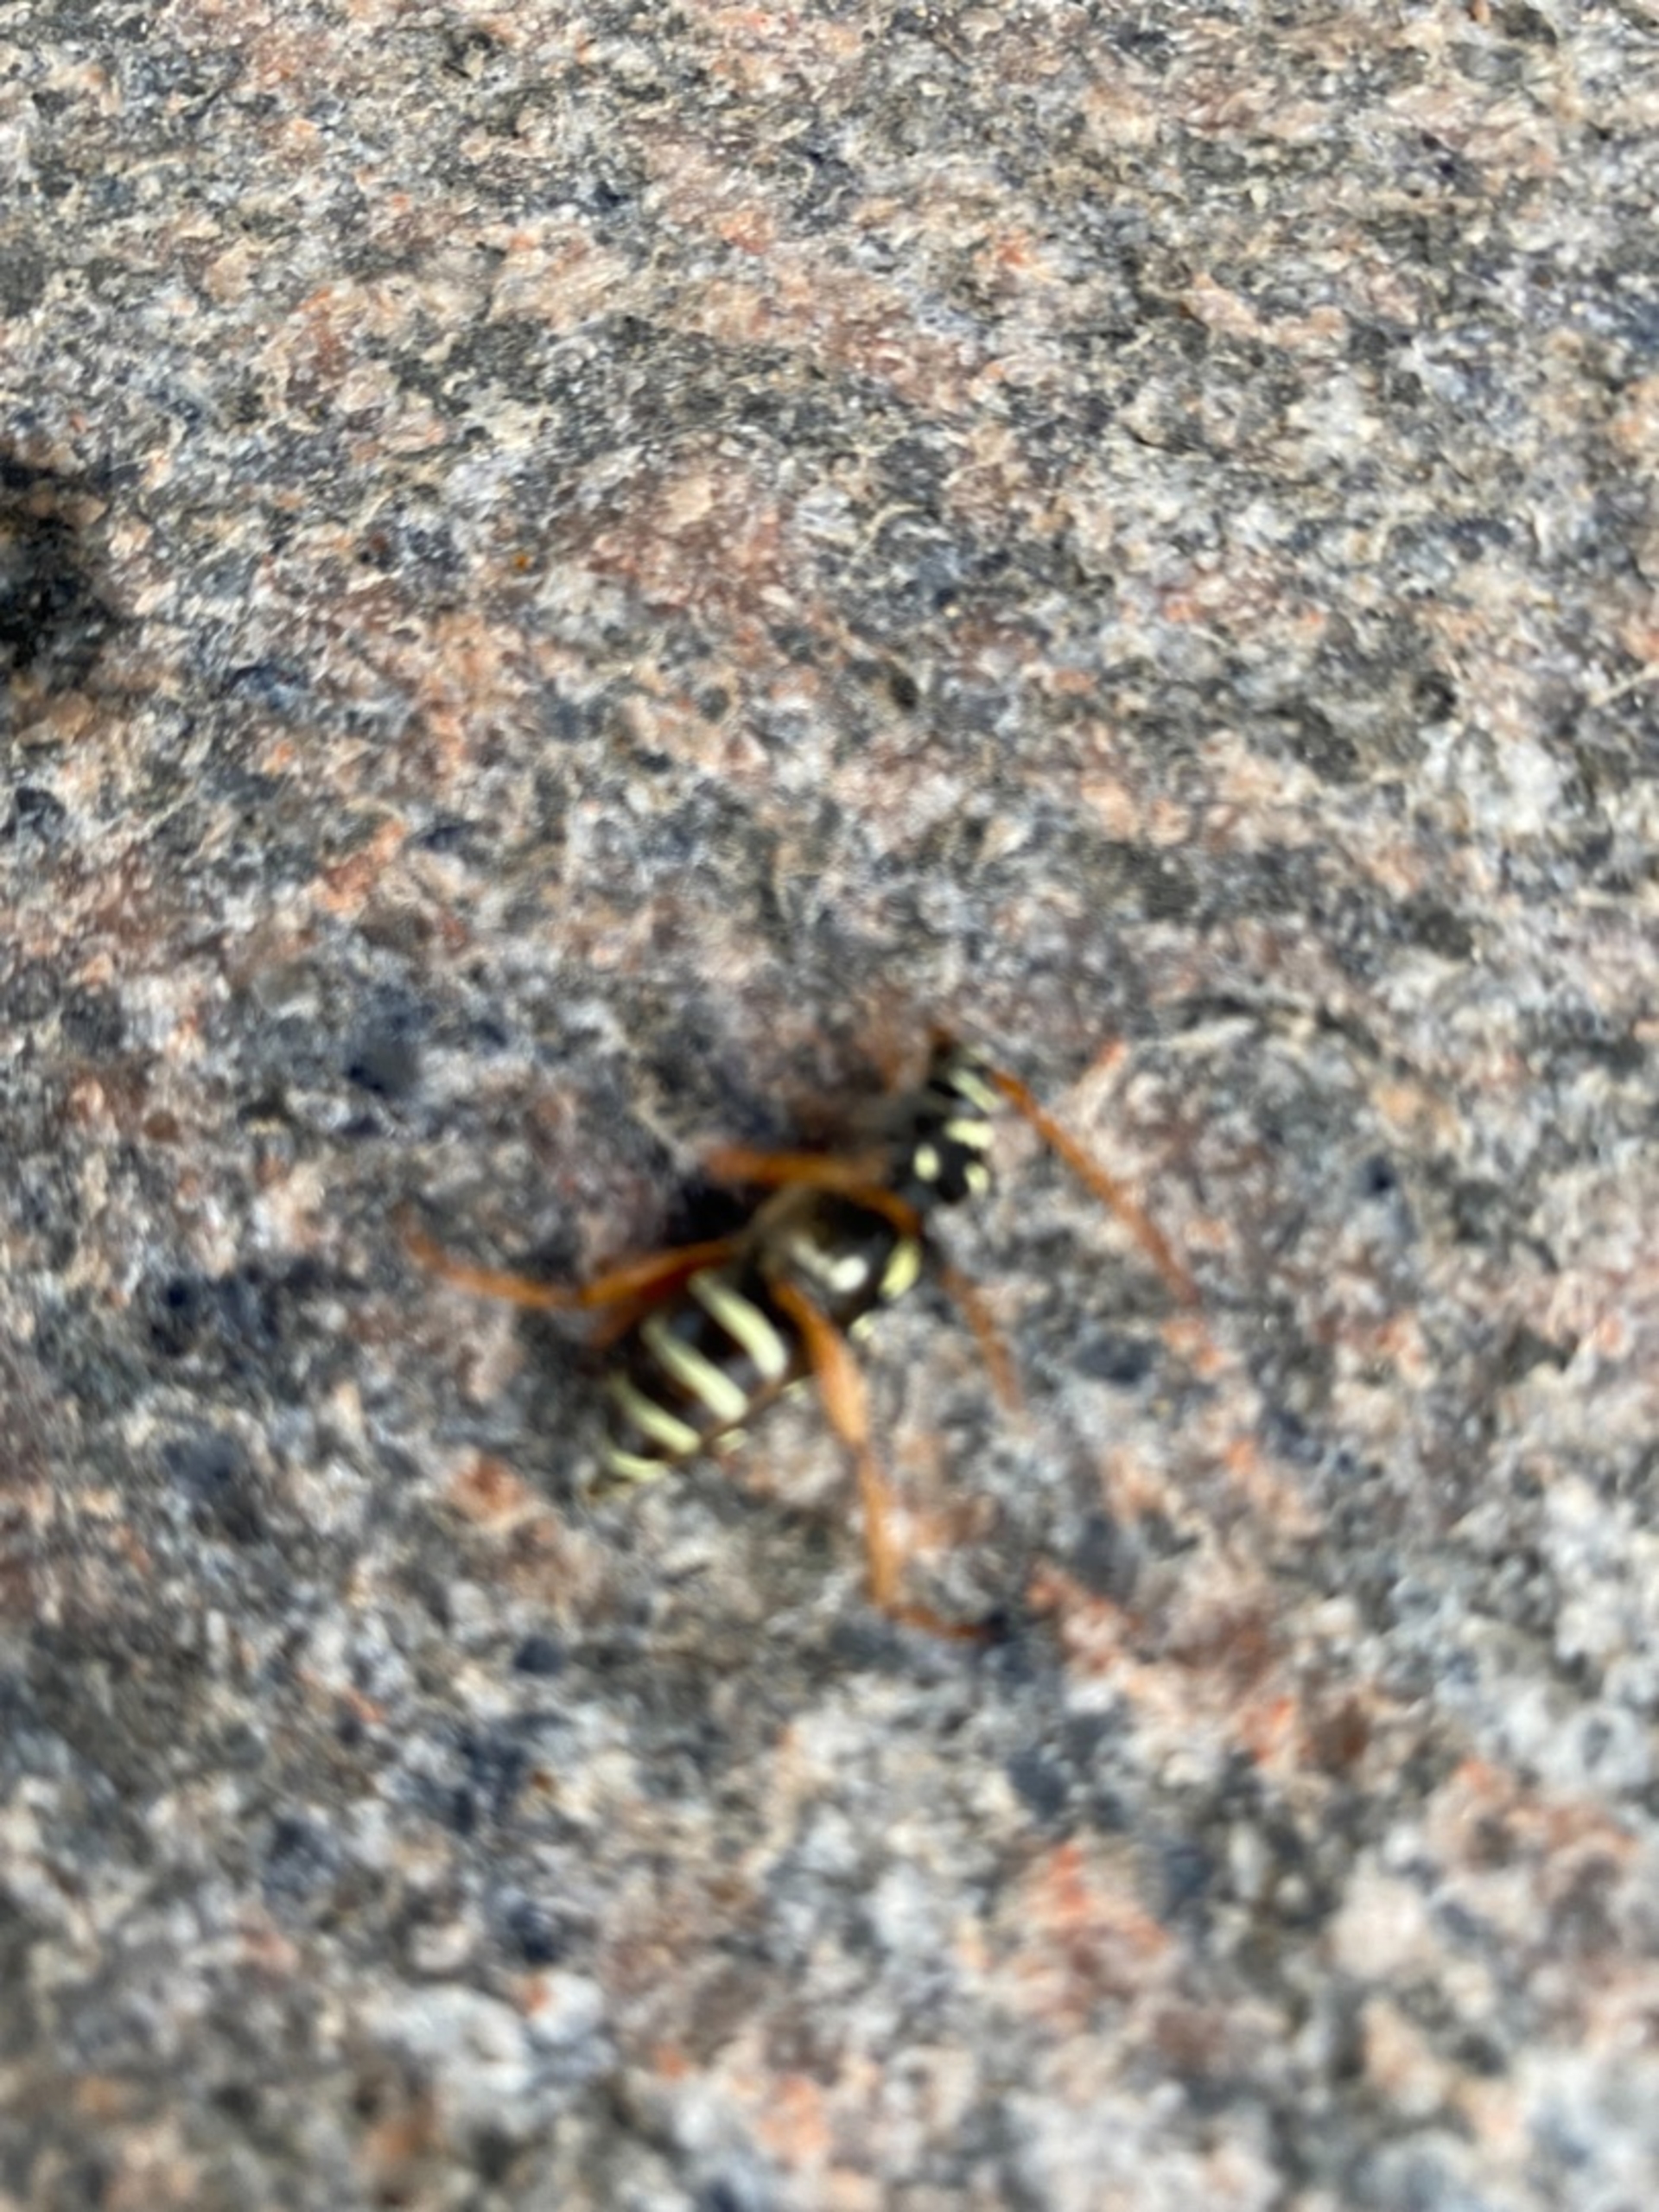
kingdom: Animalia
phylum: Arthropoda
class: Insecta
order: Coleoptera
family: Cerambycidae
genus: Plagionotus
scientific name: Plagionotus arcuatus
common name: Stor hvepsebuk
